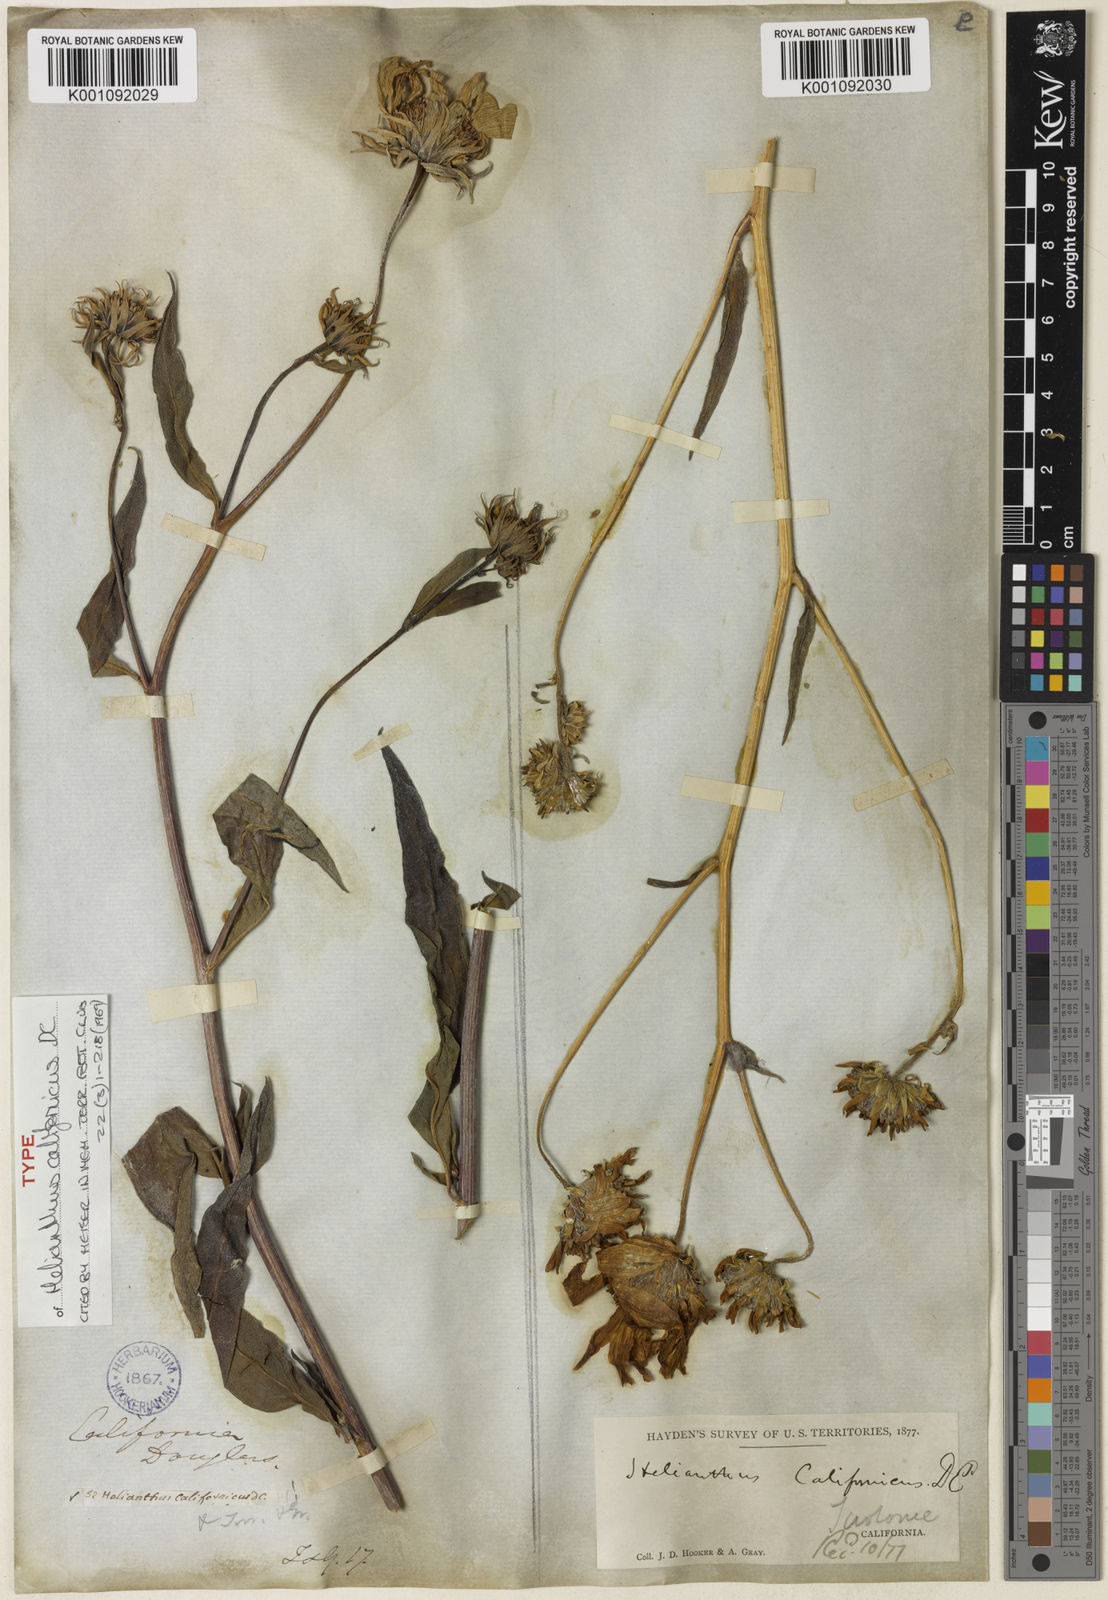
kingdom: Plantae
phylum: Tracheophyta
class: Magnoliopsida
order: Asterales
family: Asteraceae
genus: Helianthus
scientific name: Helianthus californicus
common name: California sunflower
